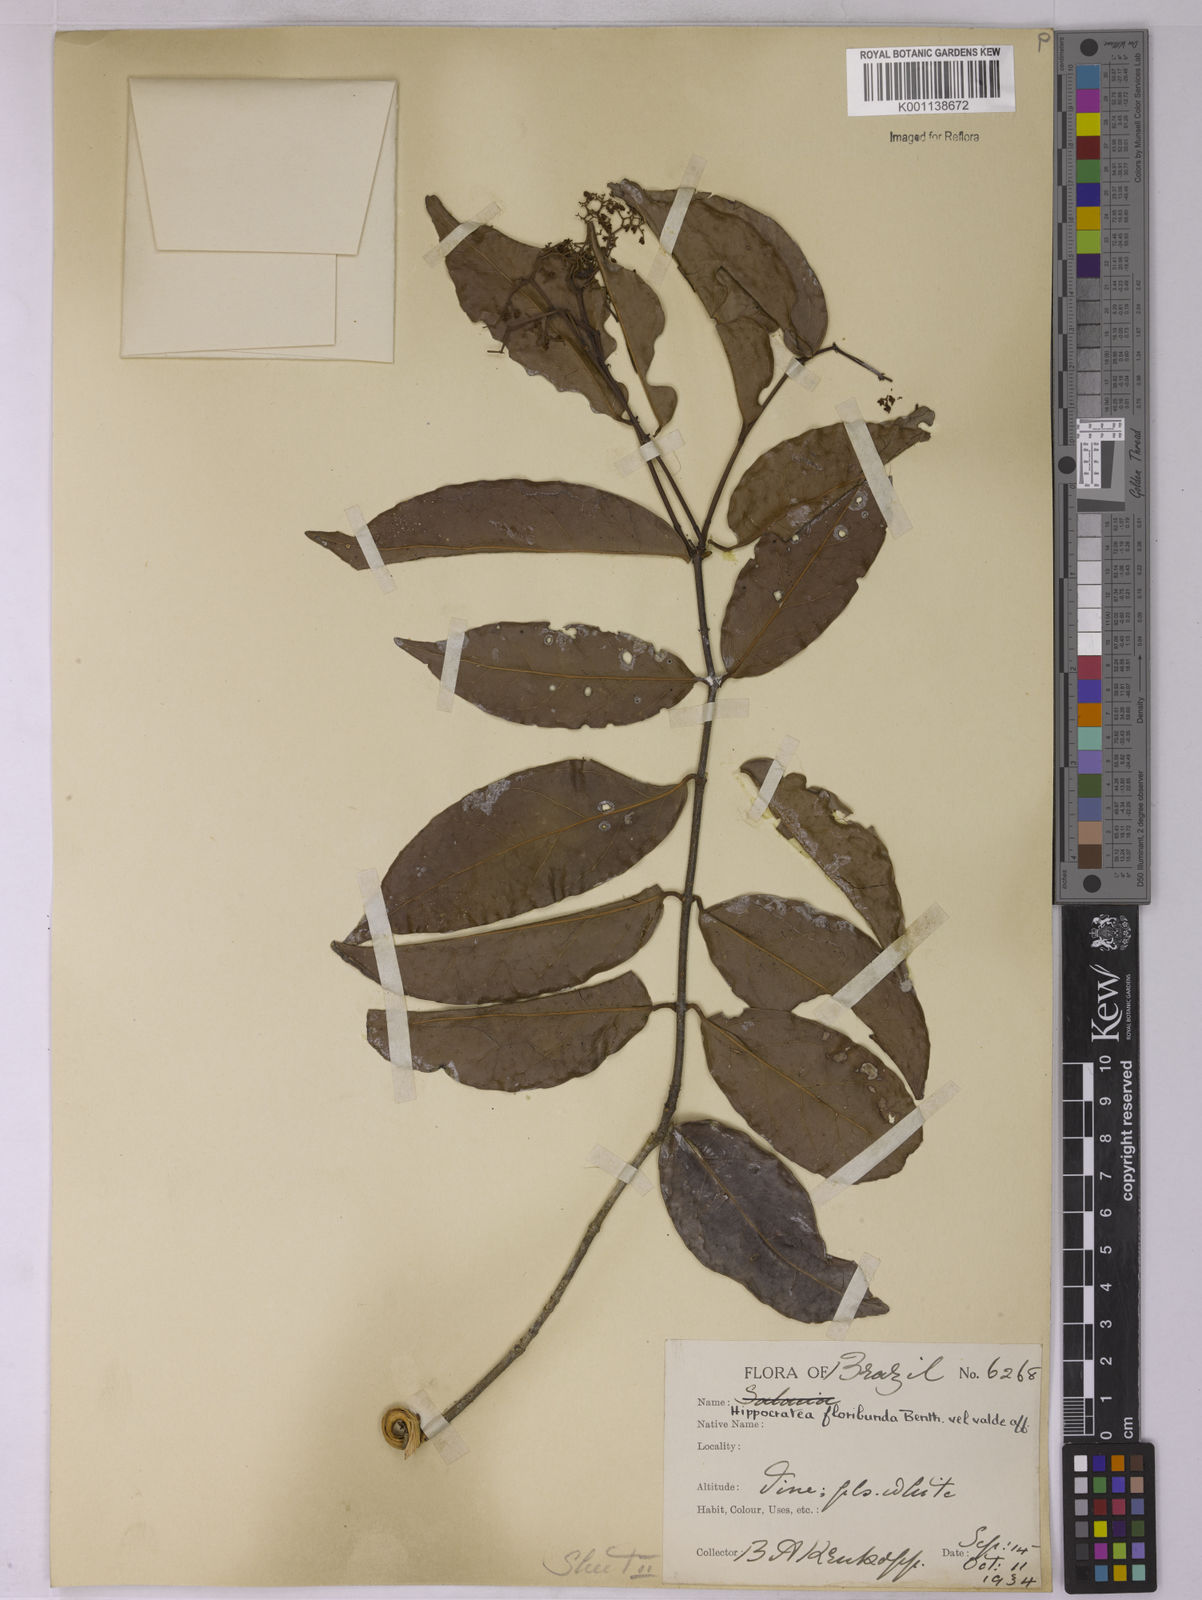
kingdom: Plantae
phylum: Tracheophyta
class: Magnoliopsida
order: Celastrales
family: Celastraceae
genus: Elachyptera
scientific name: Elachyptera floribunda
